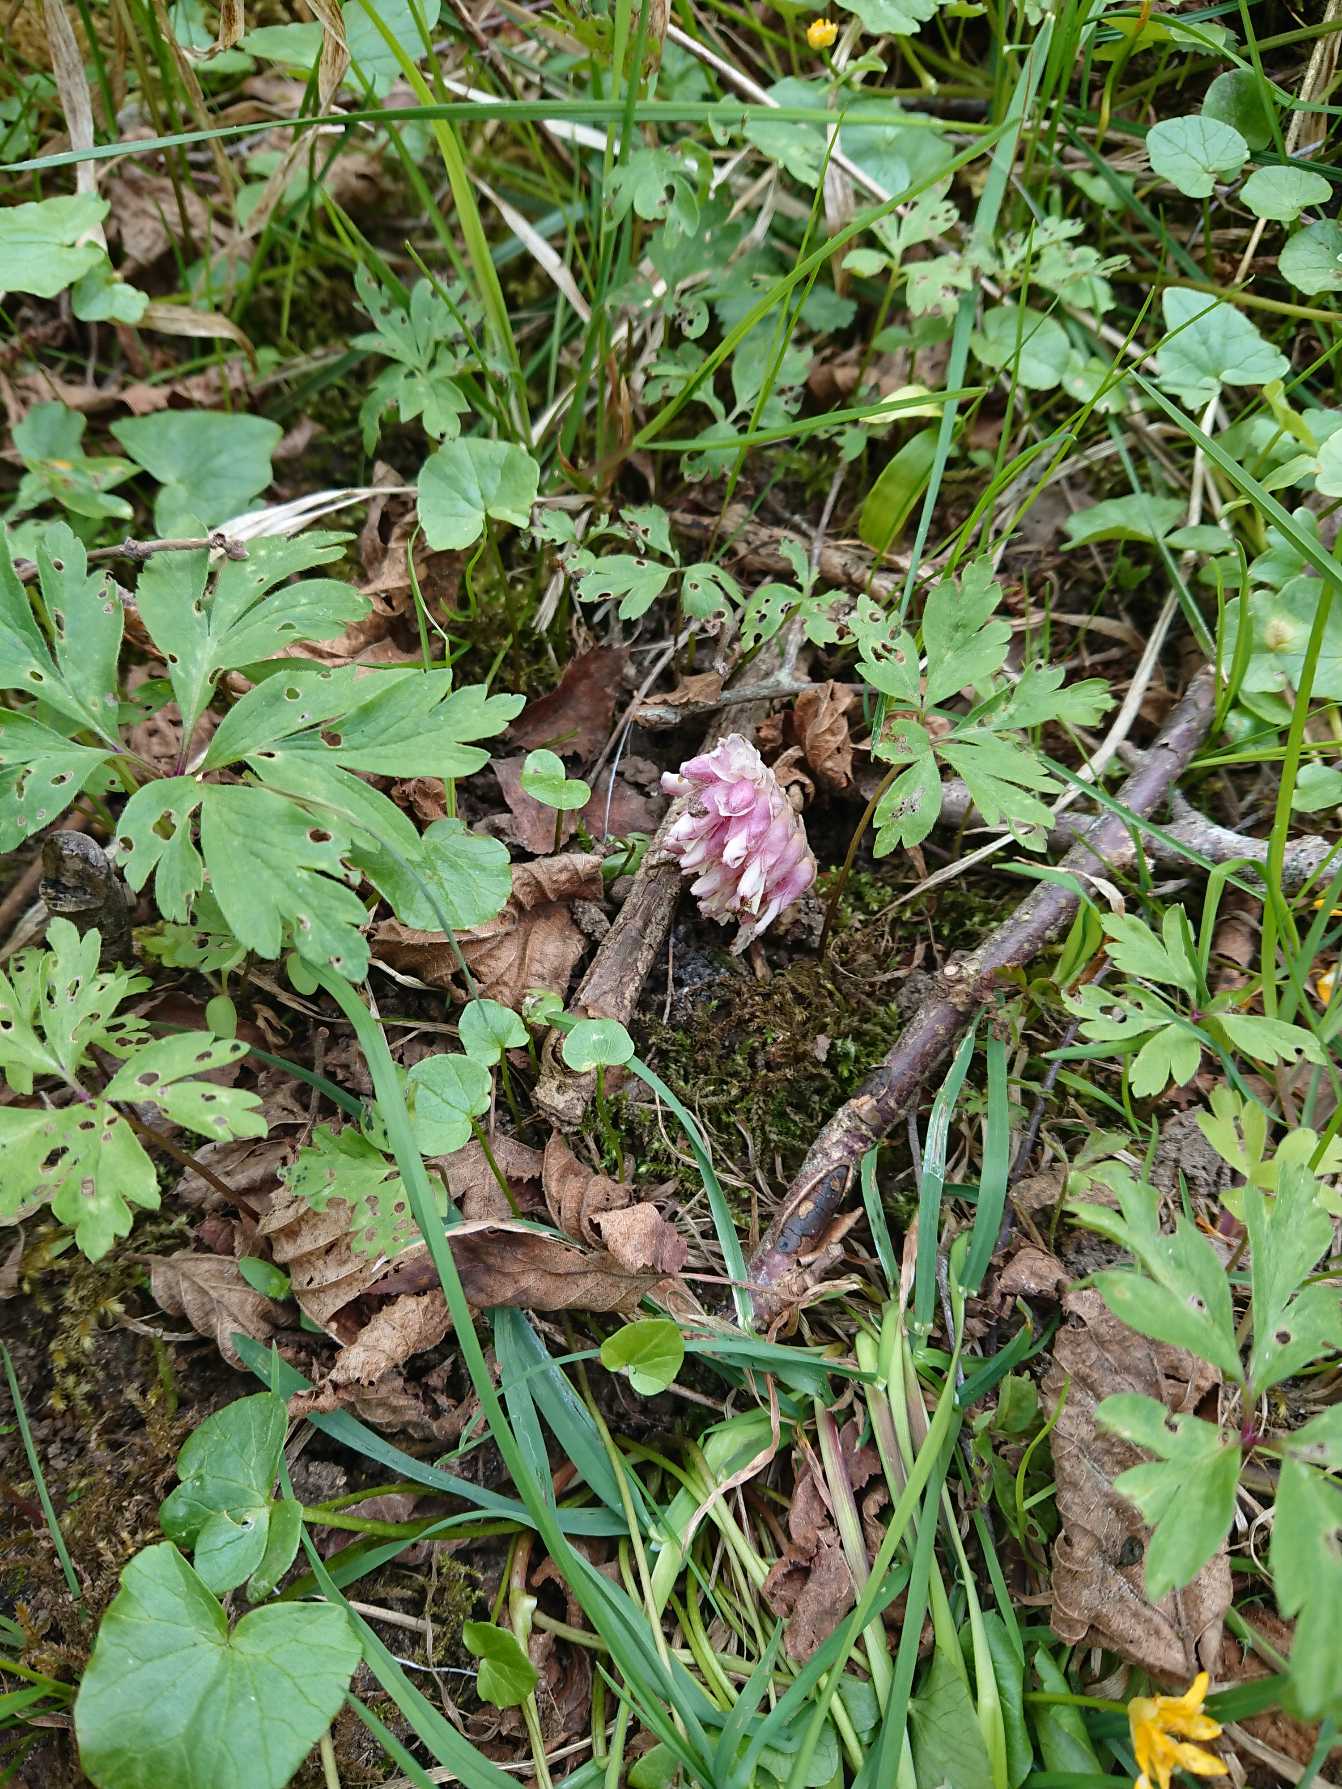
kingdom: Plantae
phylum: Tracheophyta
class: Magnoliopsida
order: Lamiales
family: Orobanchaceae
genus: Lathraea
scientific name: Lathraea squamaria
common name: Skælrod
